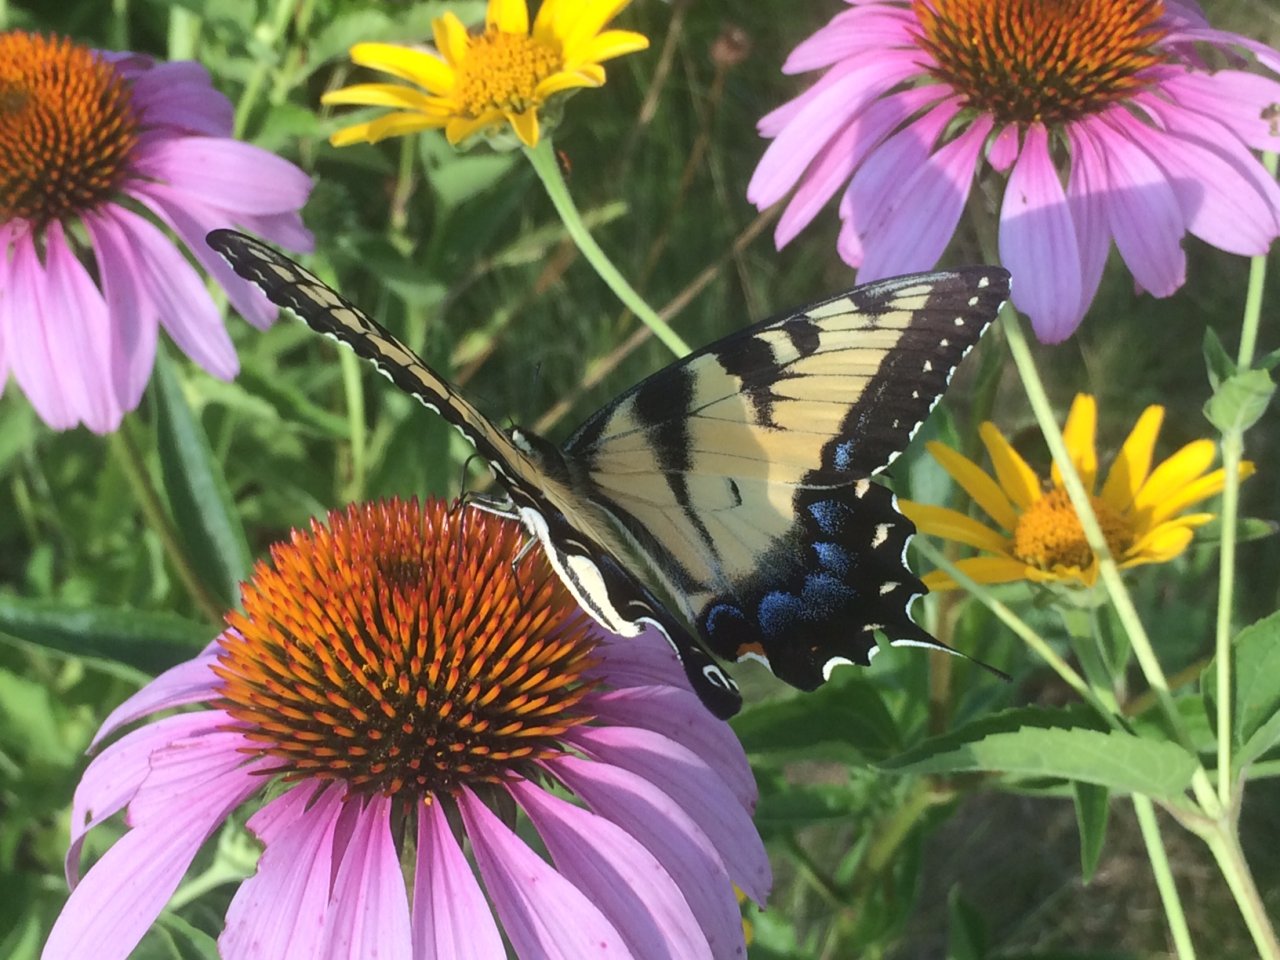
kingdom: Animalia
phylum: Arthropoda
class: Insecta
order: Lepidoptera
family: Papilionidae
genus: Pterourus
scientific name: Pterourus glaucus
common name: Eastern Tiger Swallowtail
